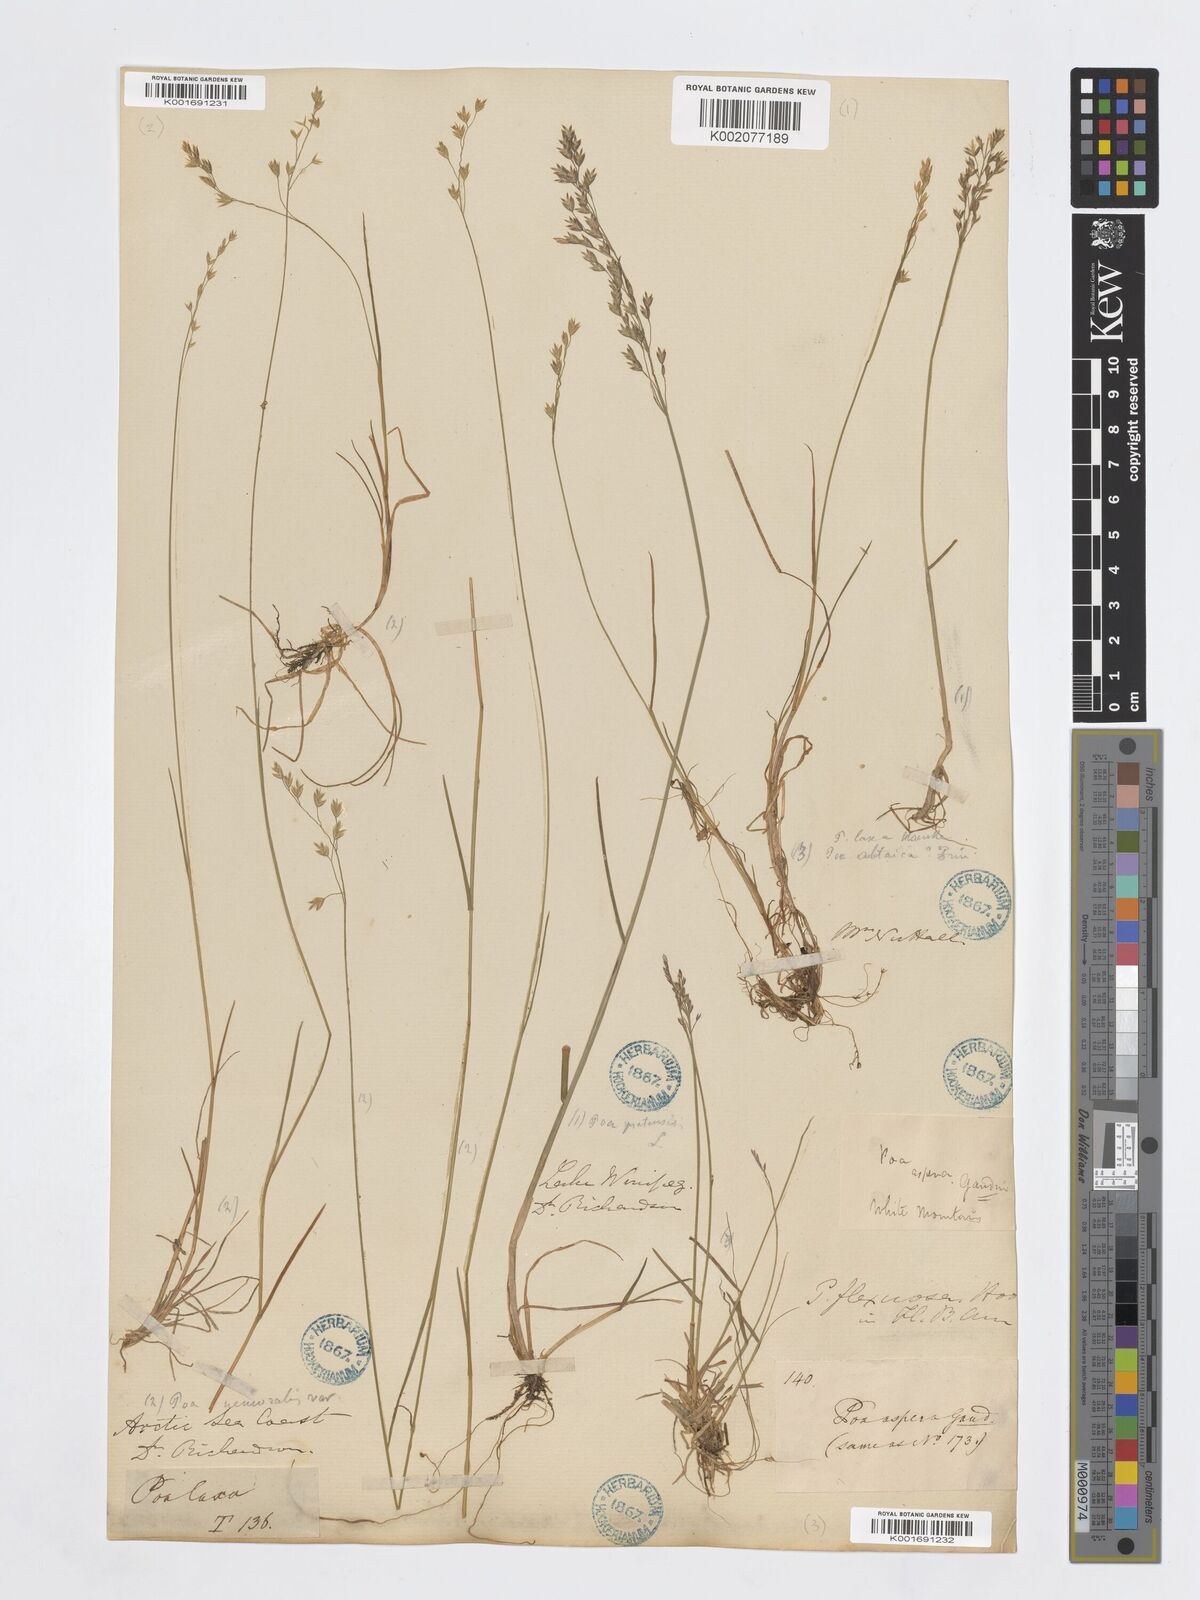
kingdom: Plantae
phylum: Tracheophyta
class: Liliopsida
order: Poales
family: Poaceae
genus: Poa
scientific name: Poa laxa
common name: Lax bluegrass
